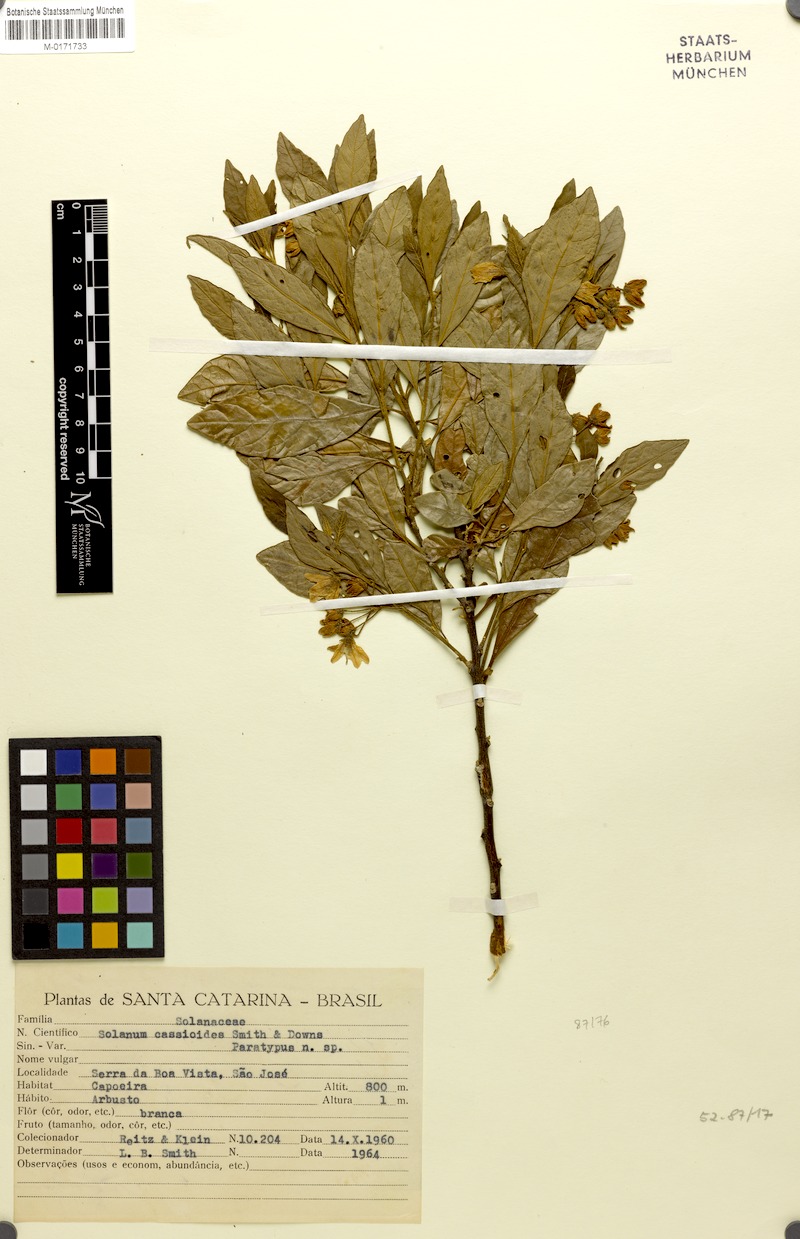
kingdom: Plantae
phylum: Tracheophyta
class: Magnoliopsida
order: Solanales
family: Solanaceae
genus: Solanum
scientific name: Solanum cassioides
